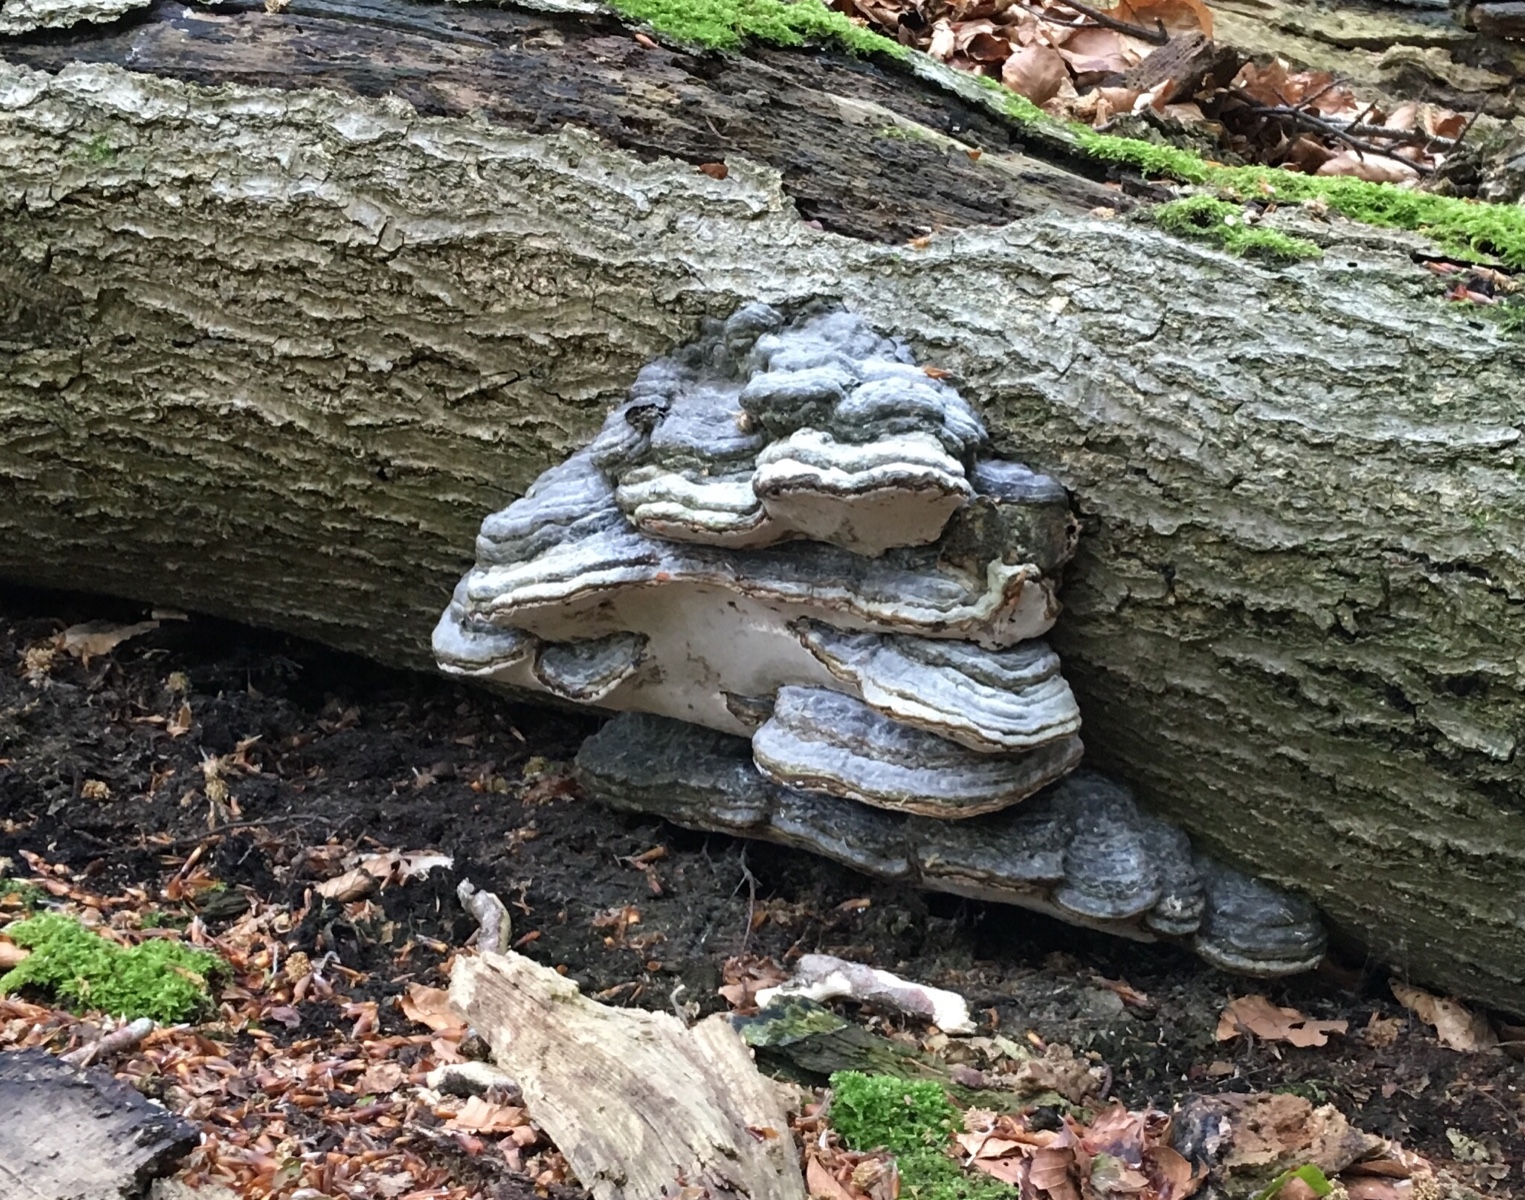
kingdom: Fungi
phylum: Basidiomycota
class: Agaricomycetes
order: Polyporales
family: Polyporaceae
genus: Fomes
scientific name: Fomes fomentarius
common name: tøndersvamp
